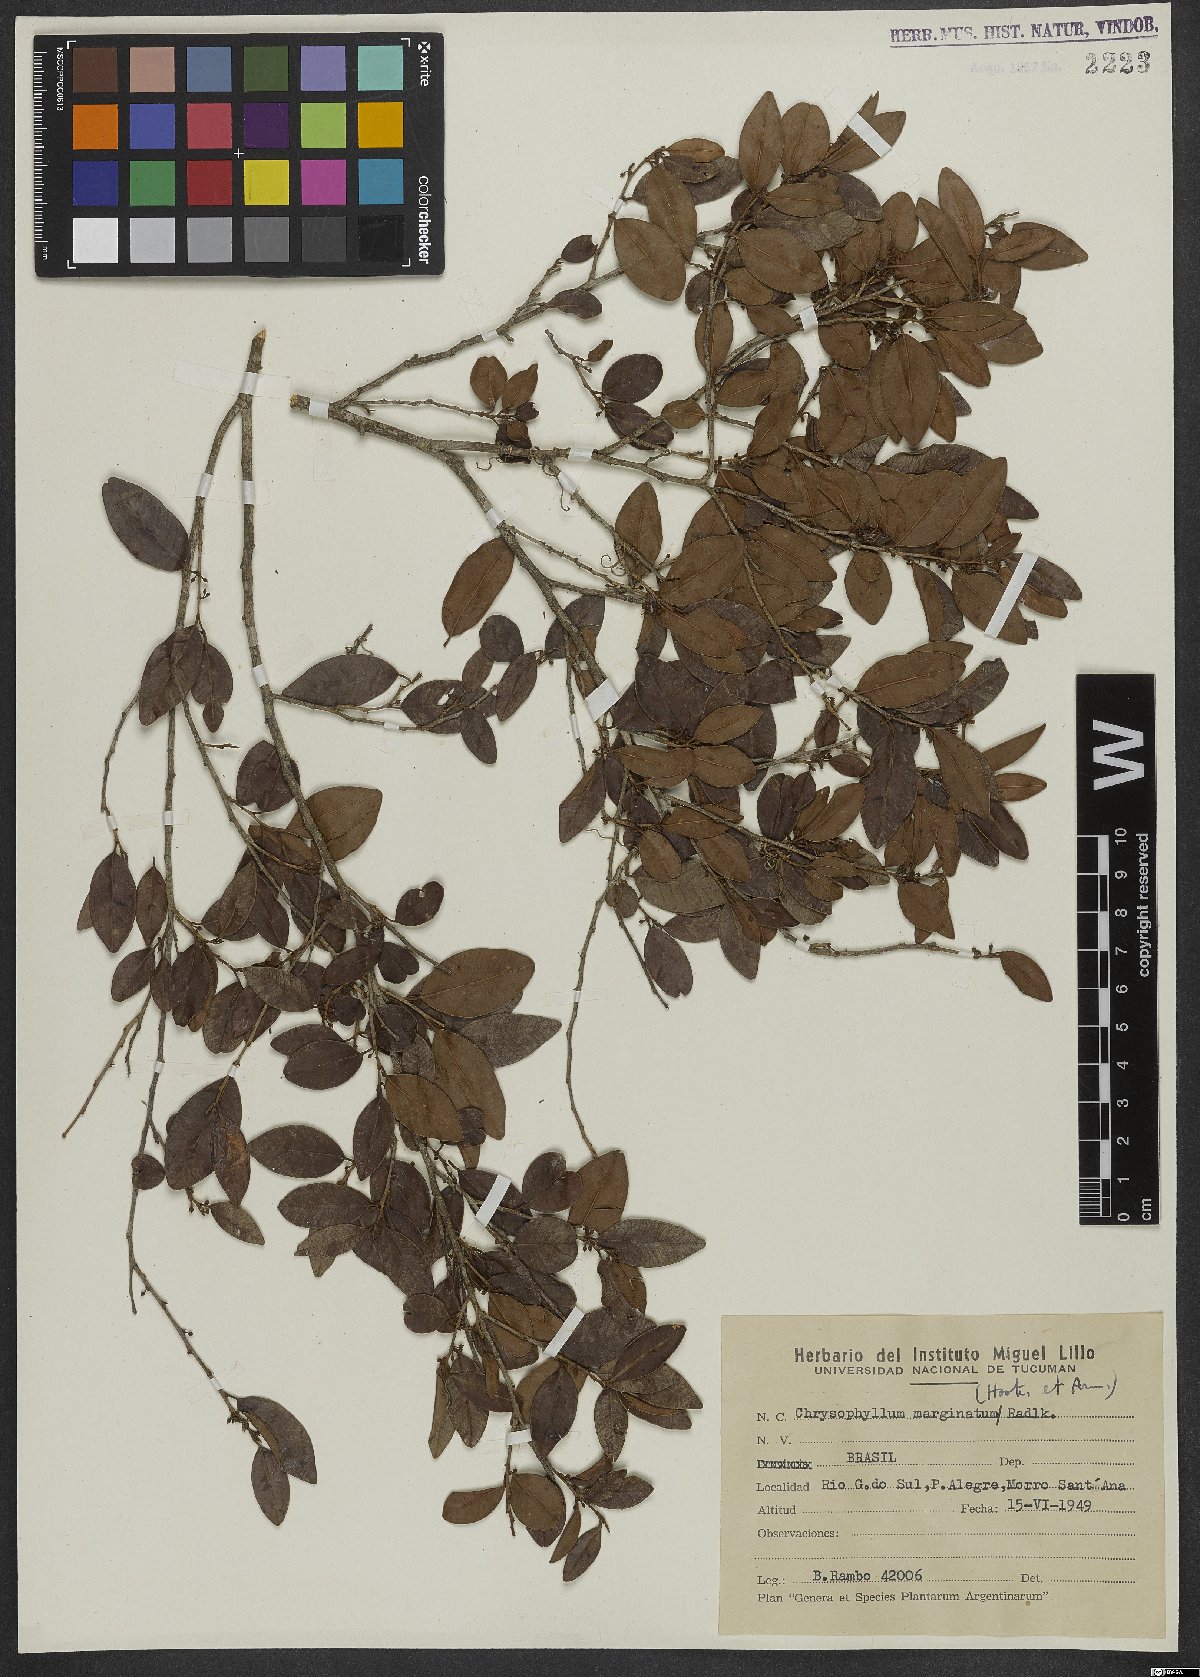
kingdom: Plantae
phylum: Tracheophyta
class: Magnoliopsida
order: Ericales
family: Sapotaceae
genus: Chrysophyllum
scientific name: Chrysophyllum marginatum
